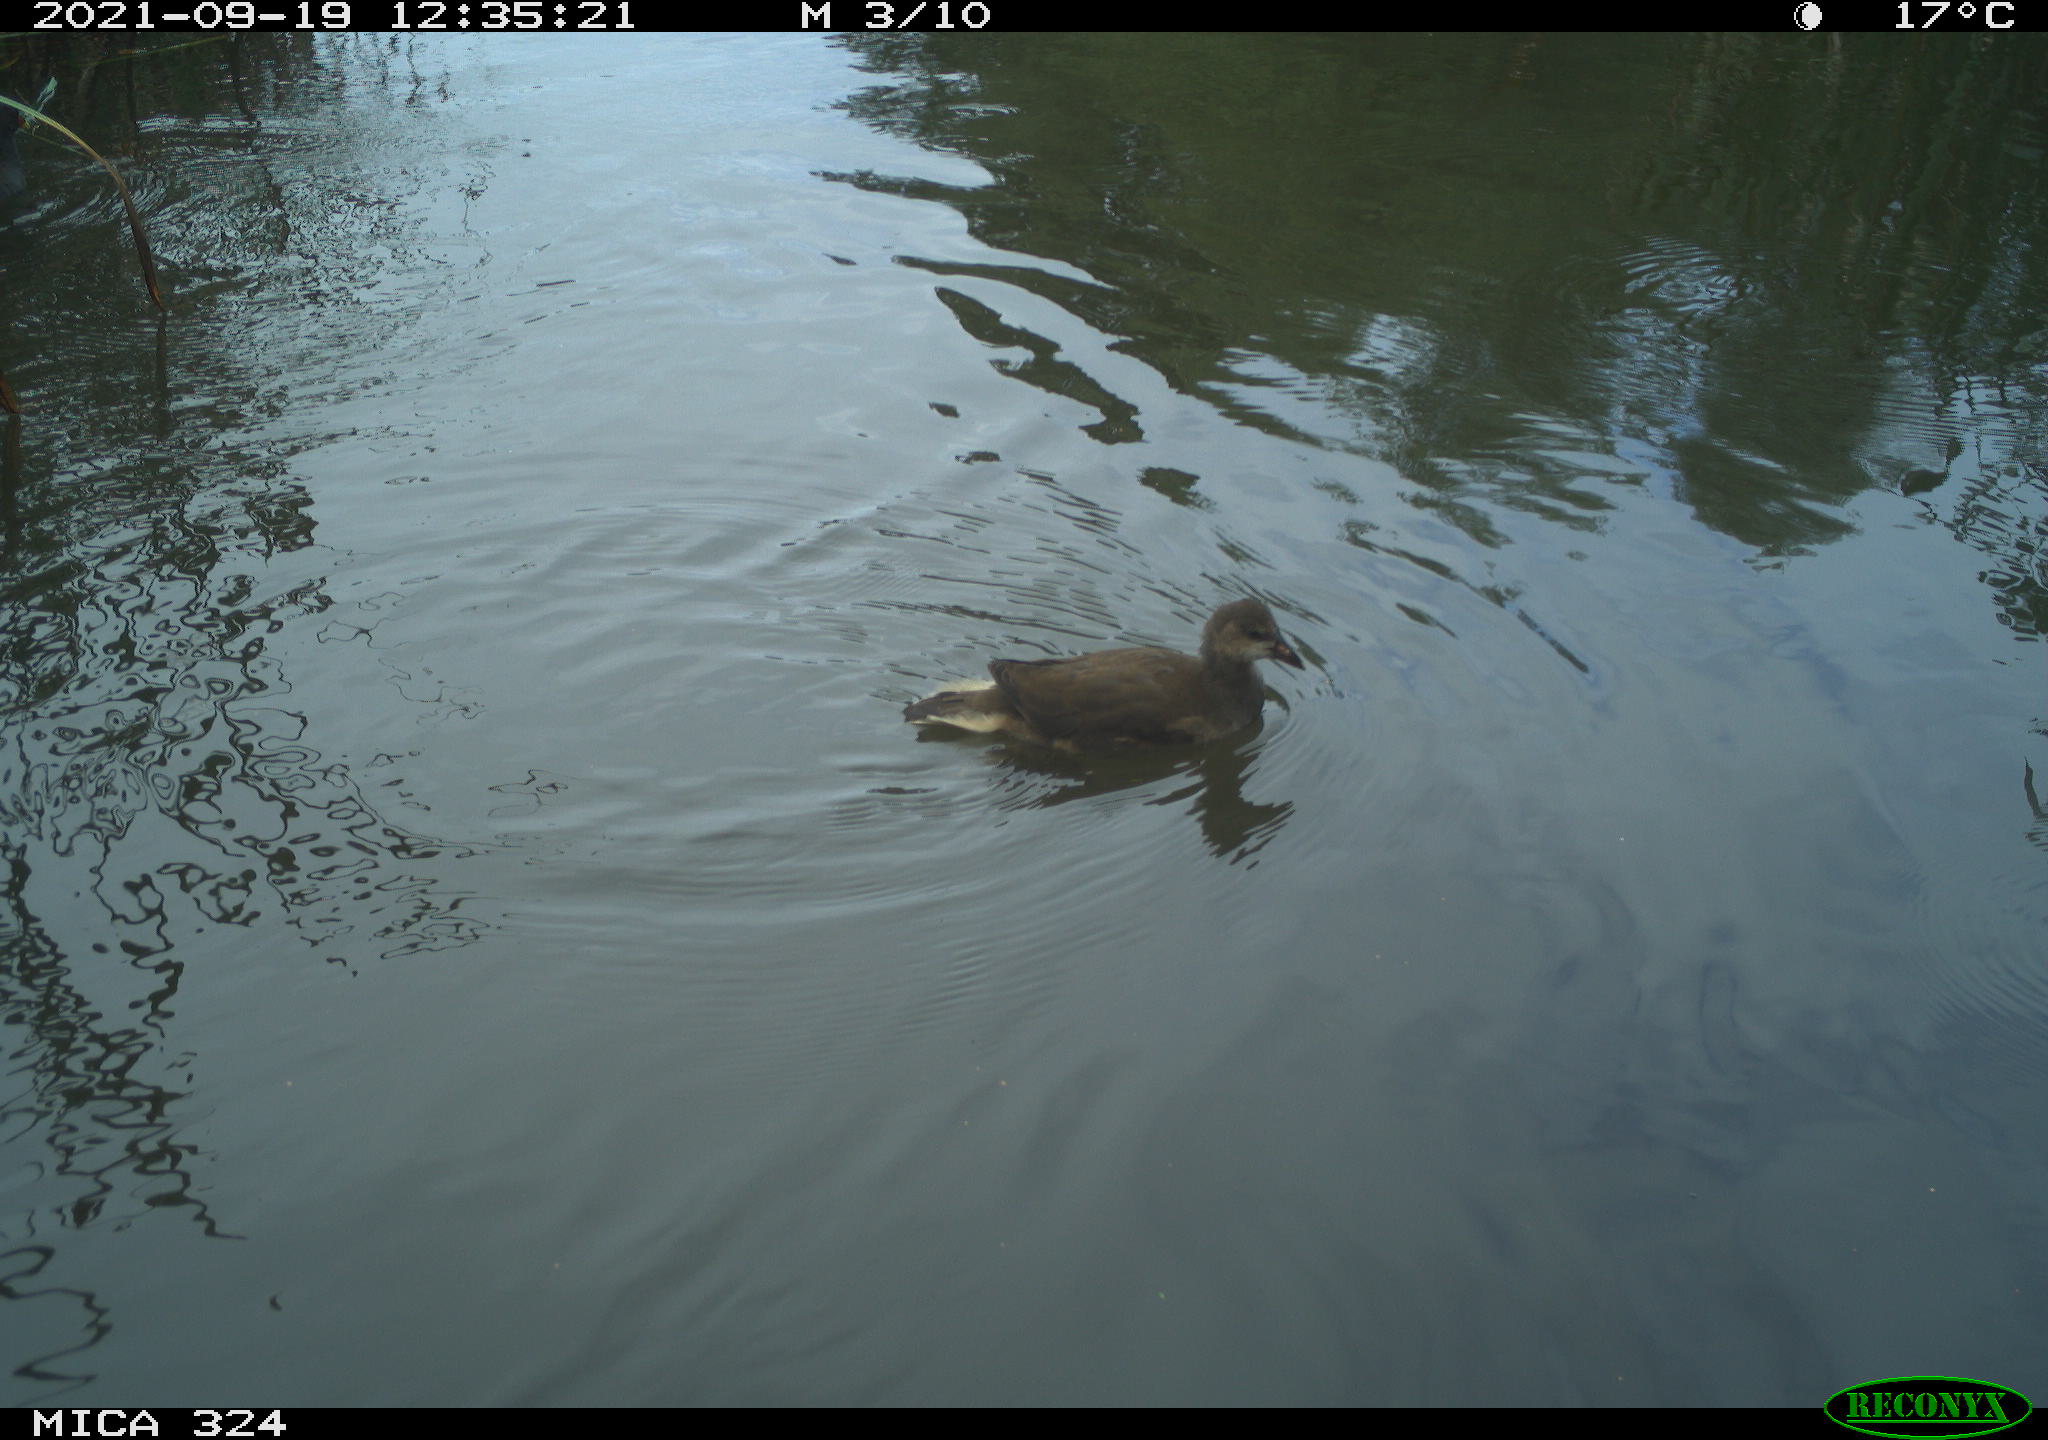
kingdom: Animalia
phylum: Chordata
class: Aves
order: Gruiformes
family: Rallidae
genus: Gallinula
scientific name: Gallinula chloropus
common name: Common moorhen
